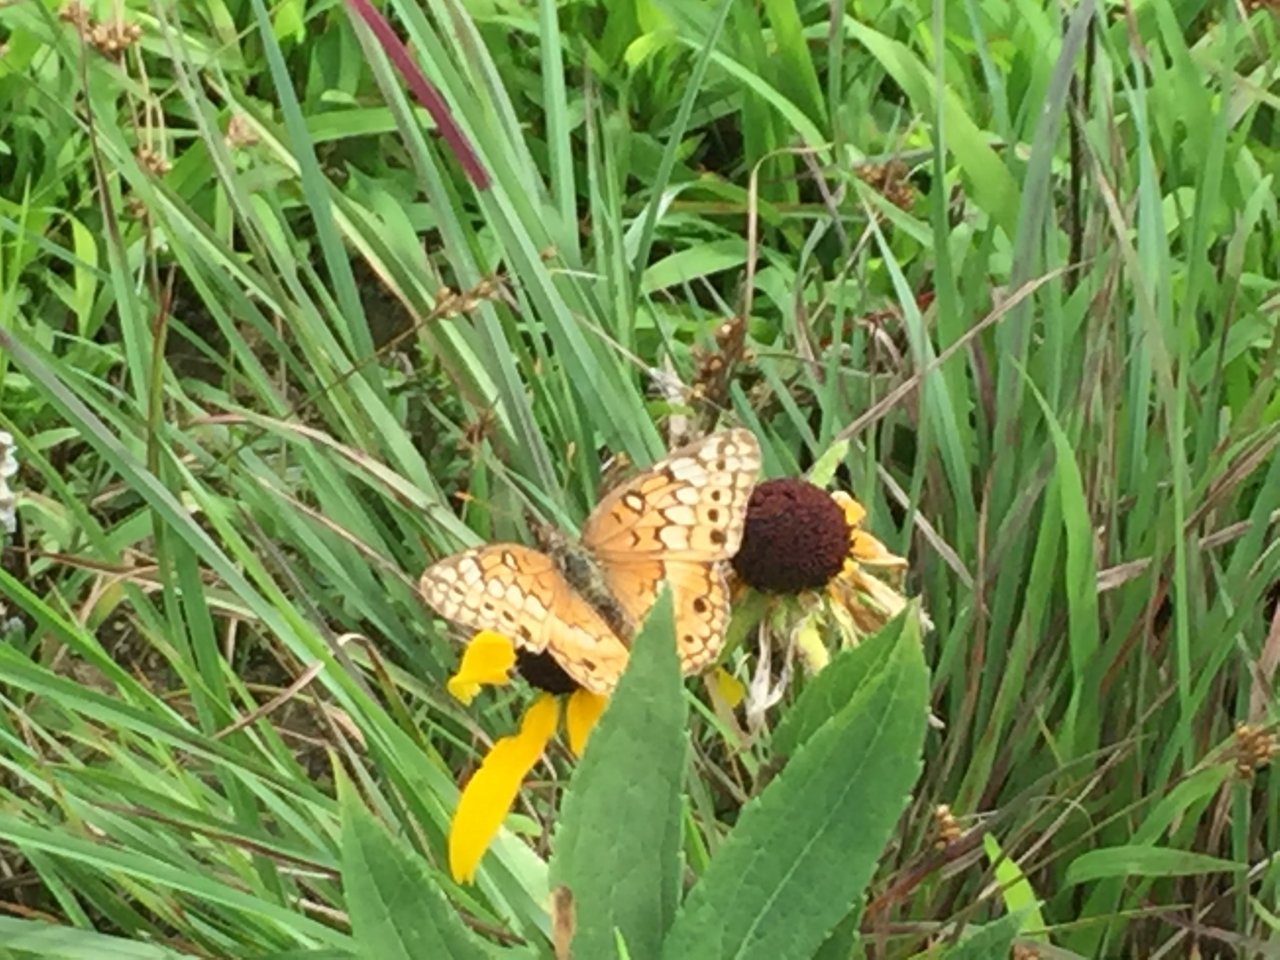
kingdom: Animalia
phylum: Arthropoda
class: Insecta
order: Lepidoptera
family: Nymphalidae
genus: Euptoieta
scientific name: Euptoieta claudia
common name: Variegated Fritillary
